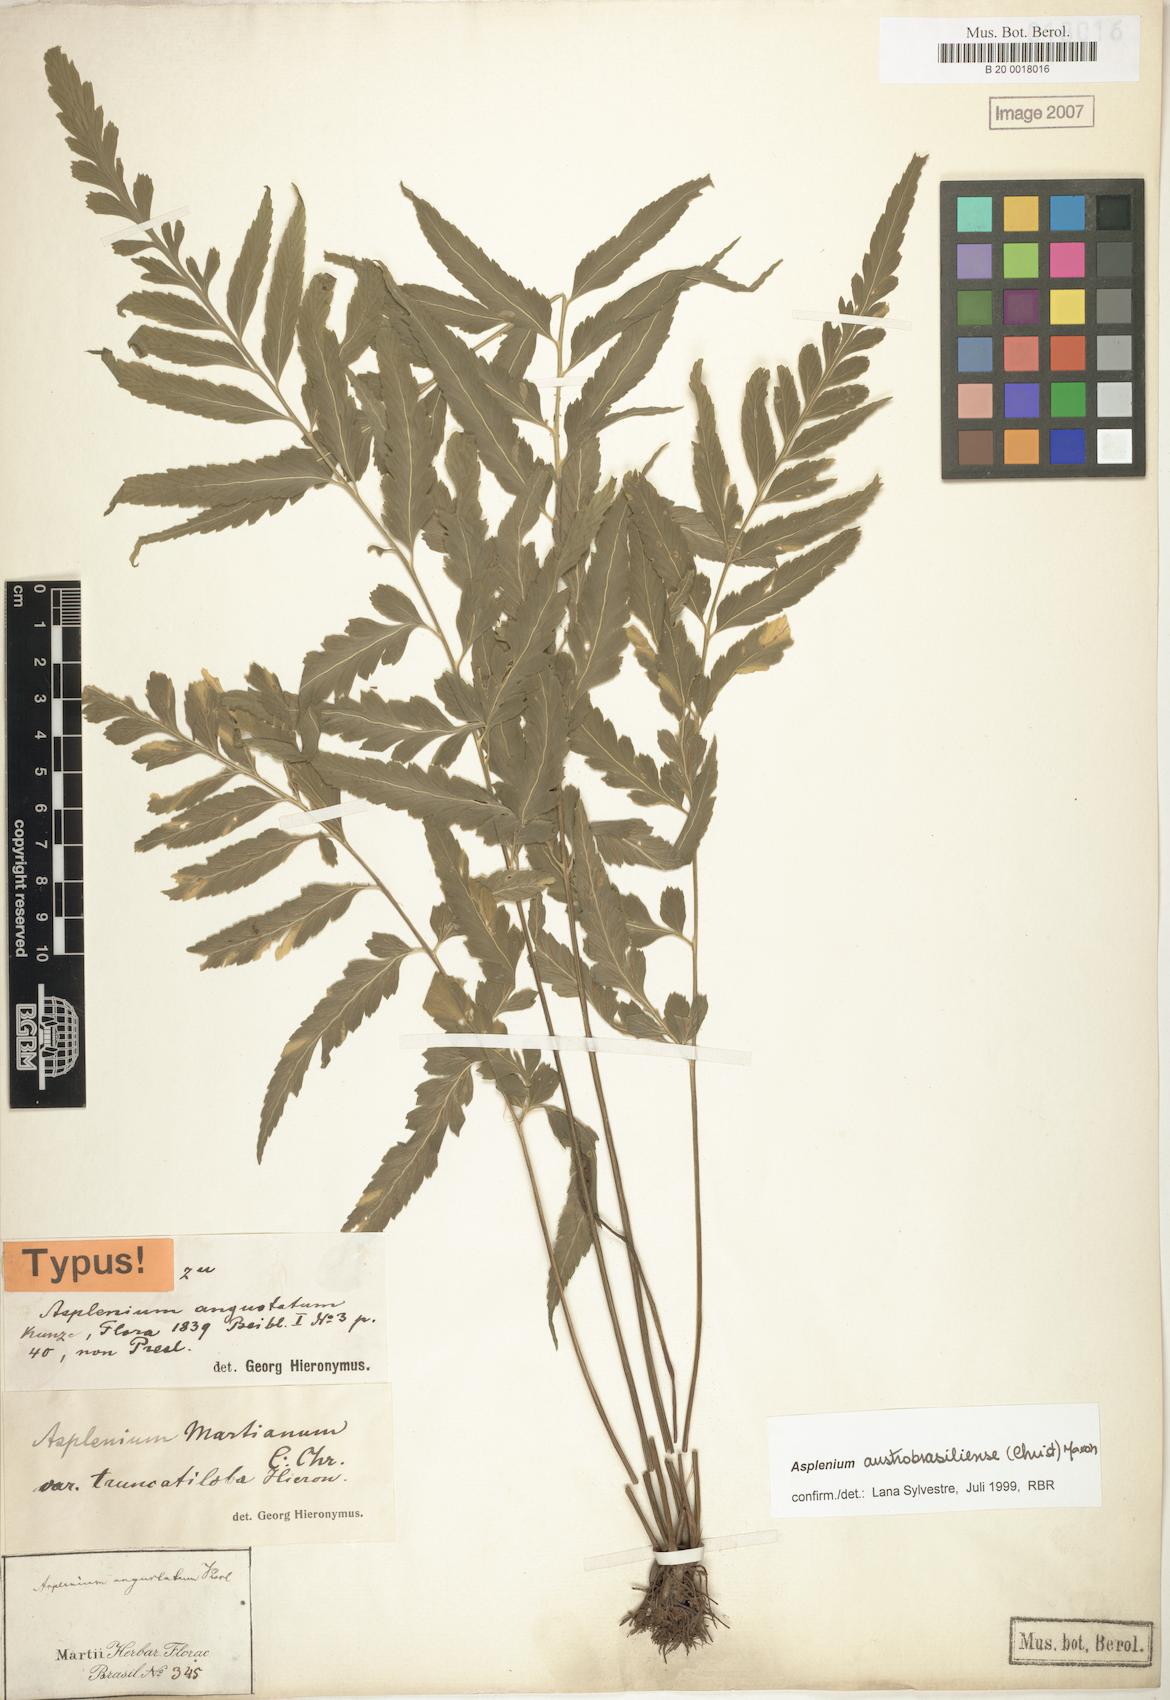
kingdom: Plantae
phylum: Tracheophyta
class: Polypodiopsida
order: Polypodiales
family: Aspleniaceae
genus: Asplenium
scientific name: Asplenium austrobrasiliense
